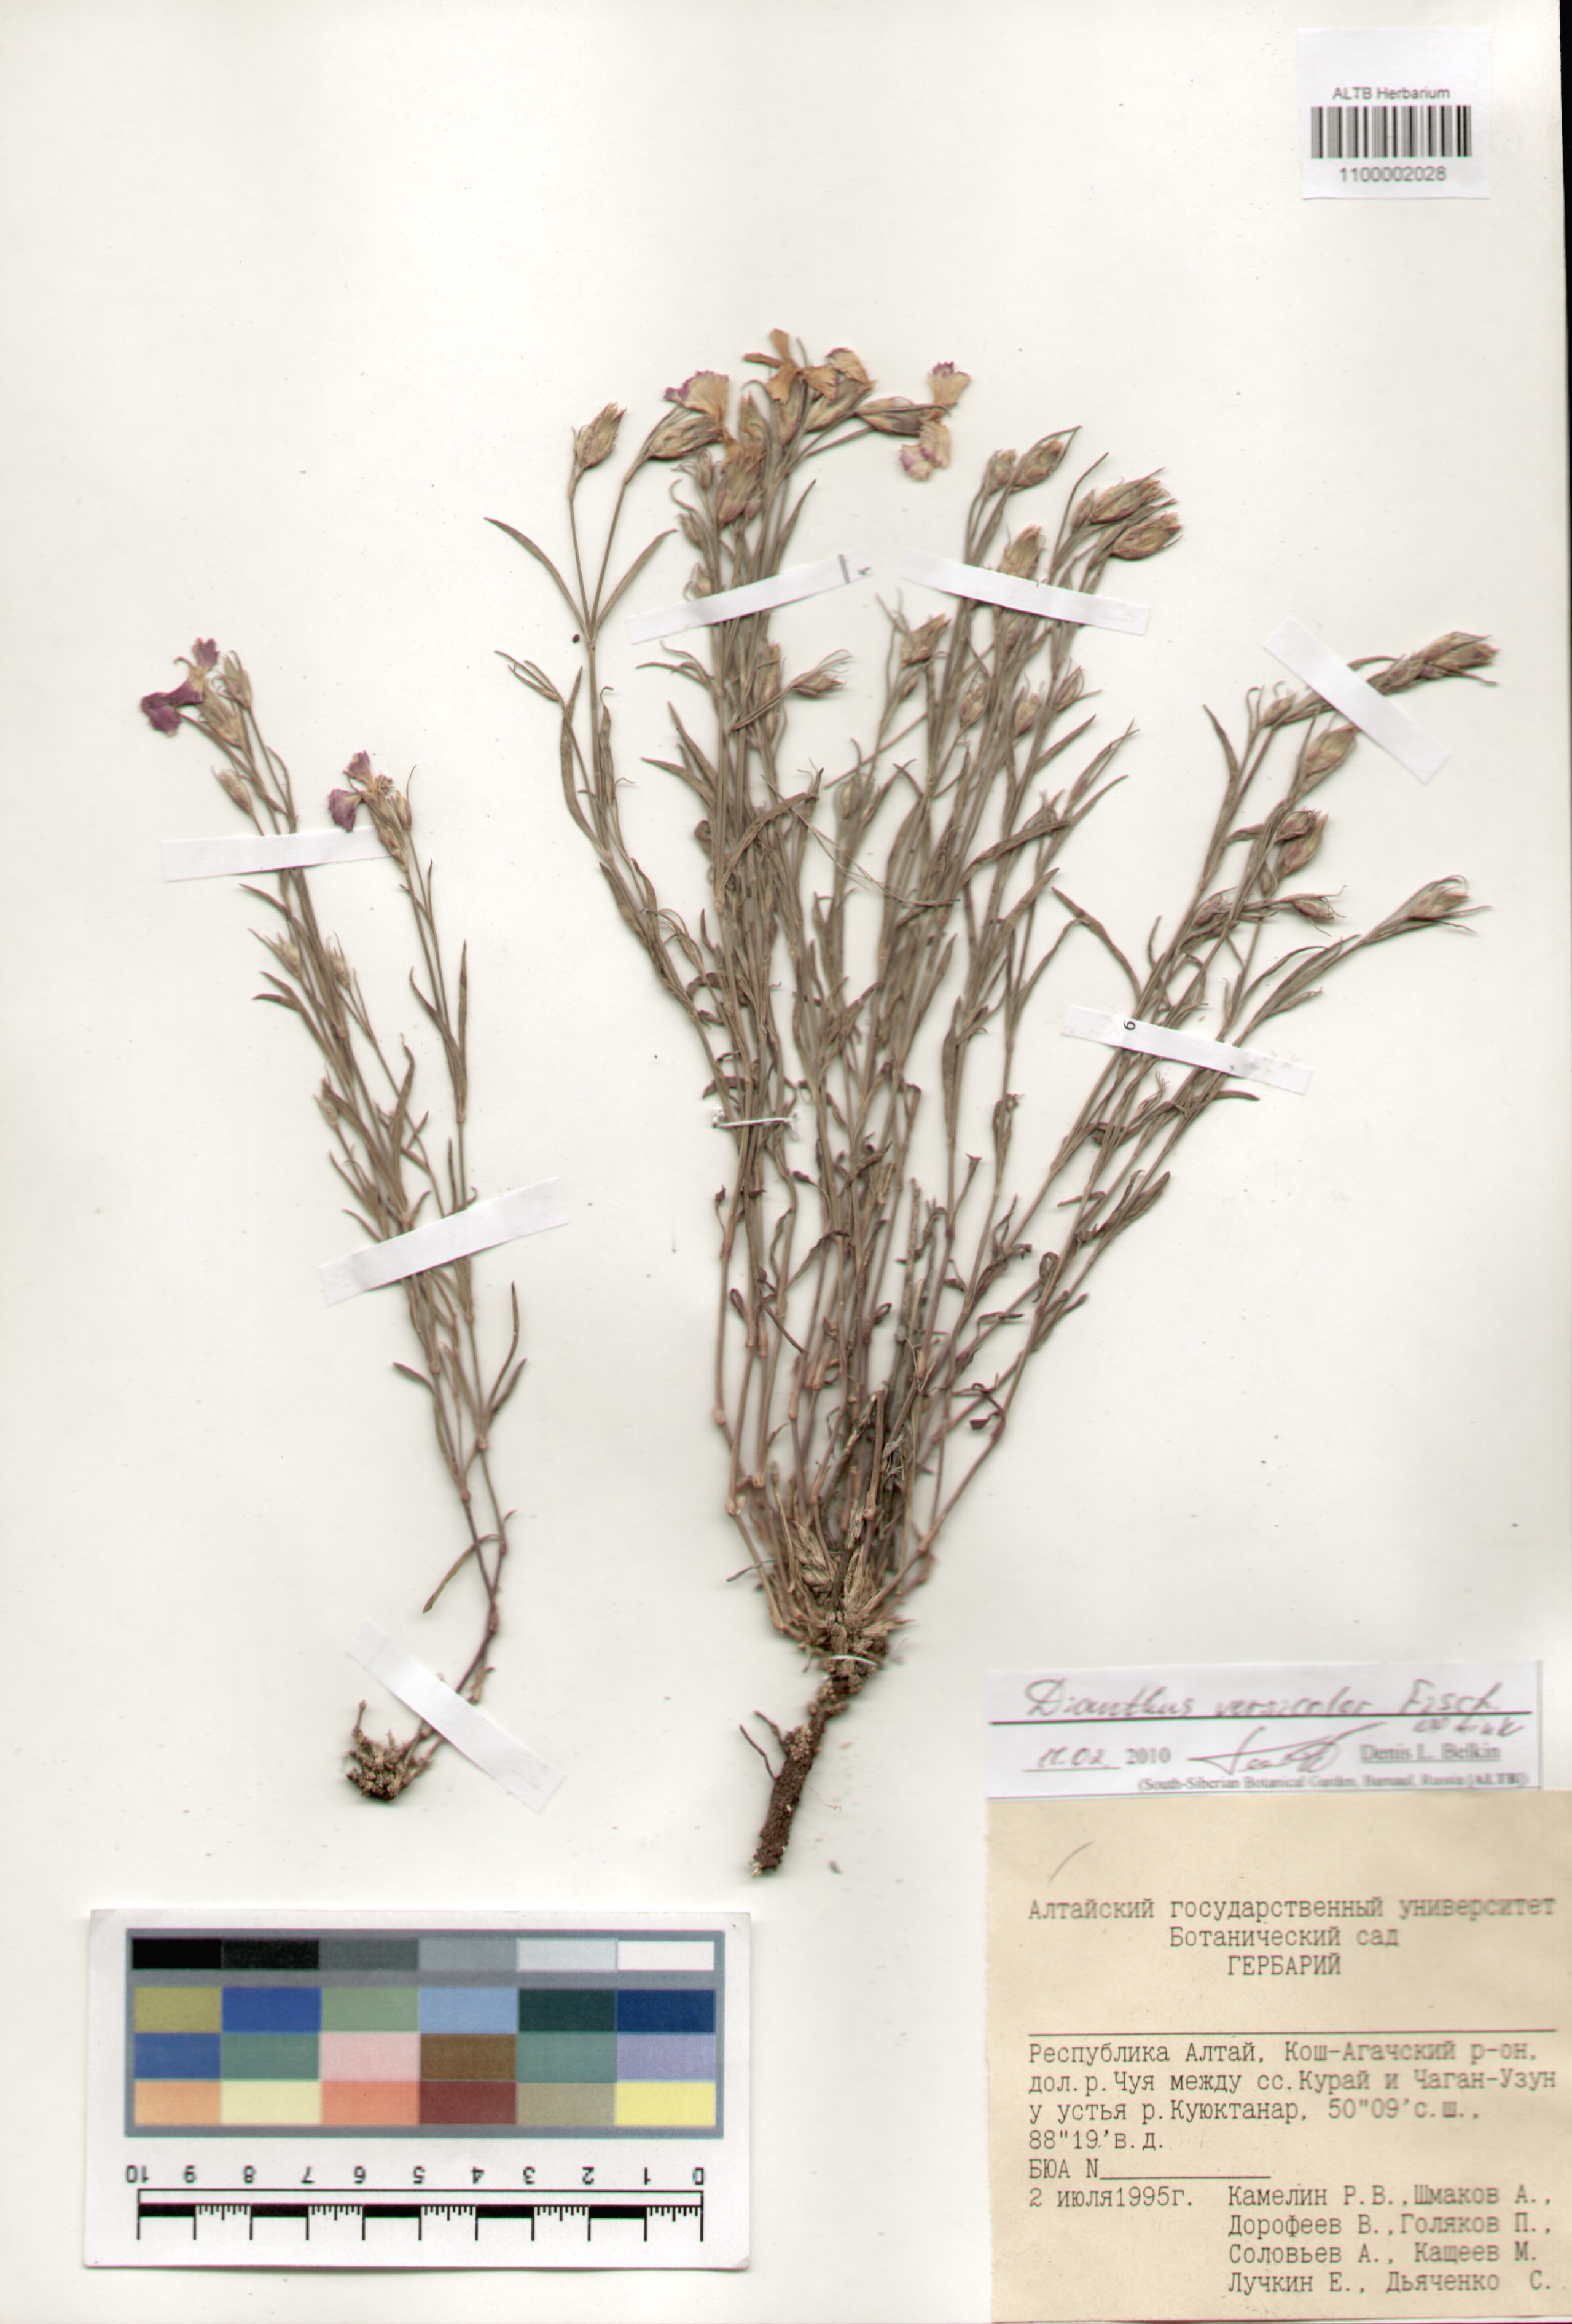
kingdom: Plantae
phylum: Tracheophyta
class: Magnoliopsida
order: Caryophyllales
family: Caryophyllaceae
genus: Dianthus
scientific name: Dianthus chinensis
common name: Rainbow pink
